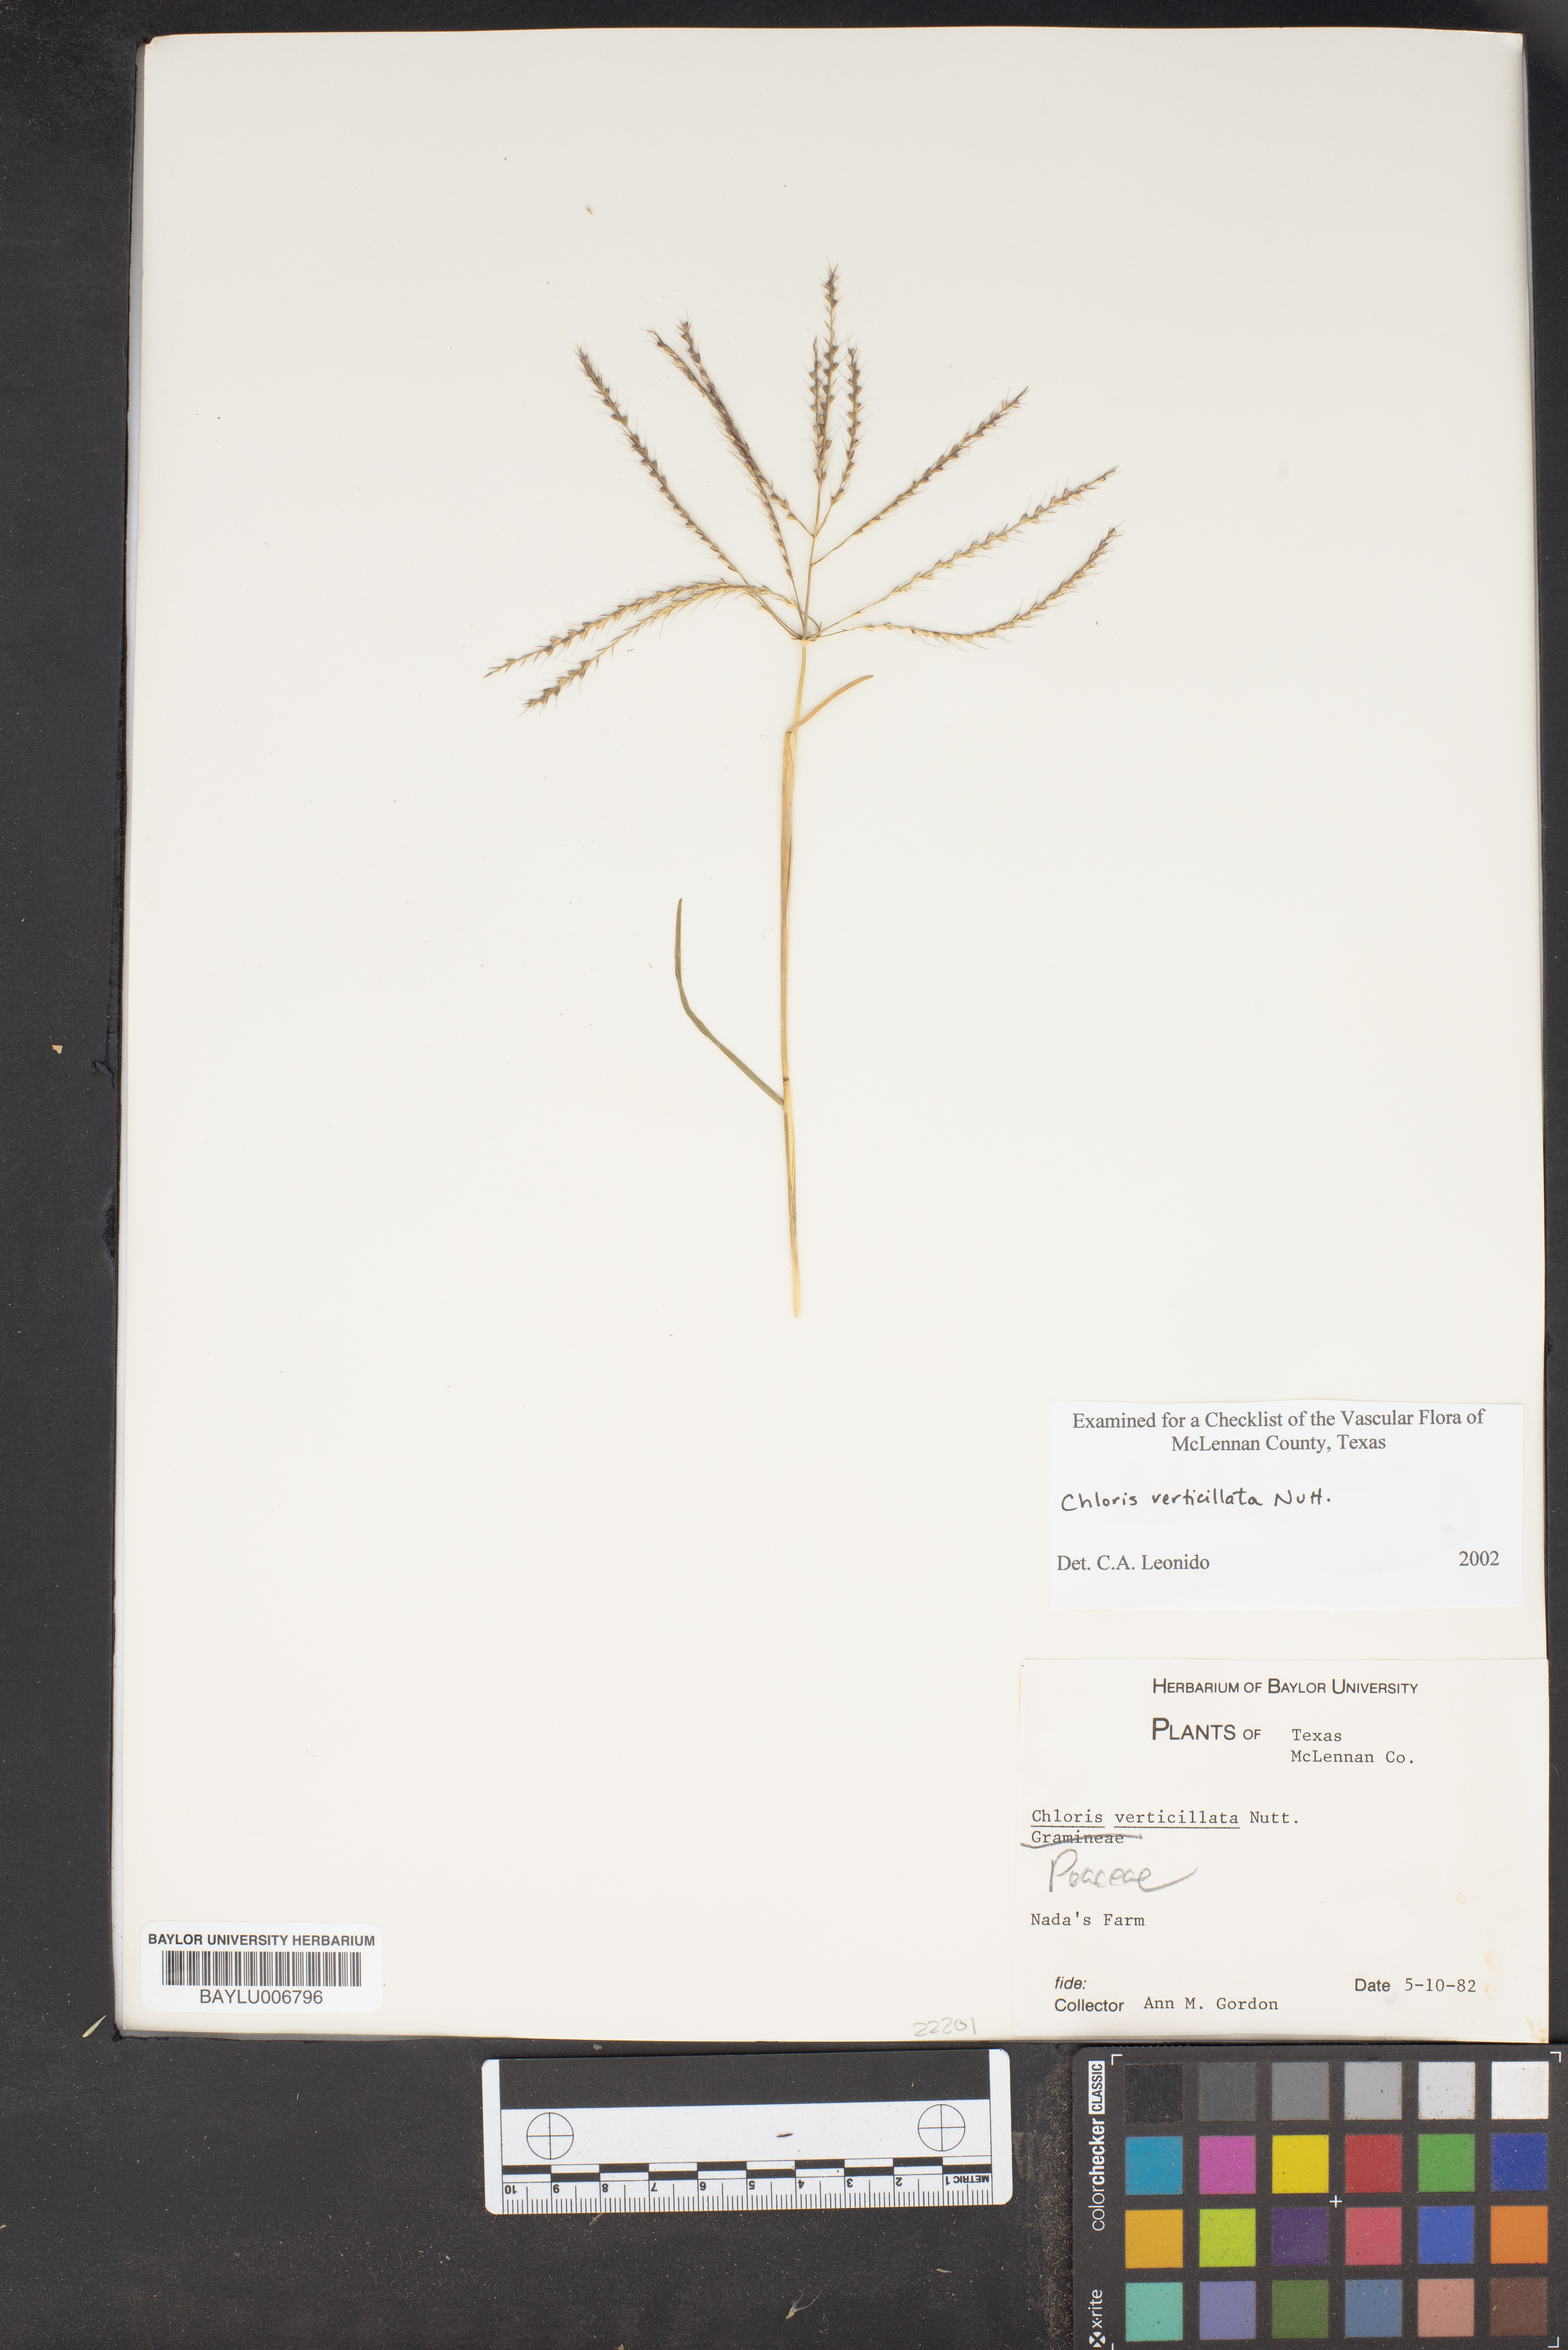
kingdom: Plantae
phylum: Tracheophyta
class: Liliopsida
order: Poales
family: Poaceae
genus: Chloris
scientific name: Chloris verticillata
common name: Tumble windmill grass
